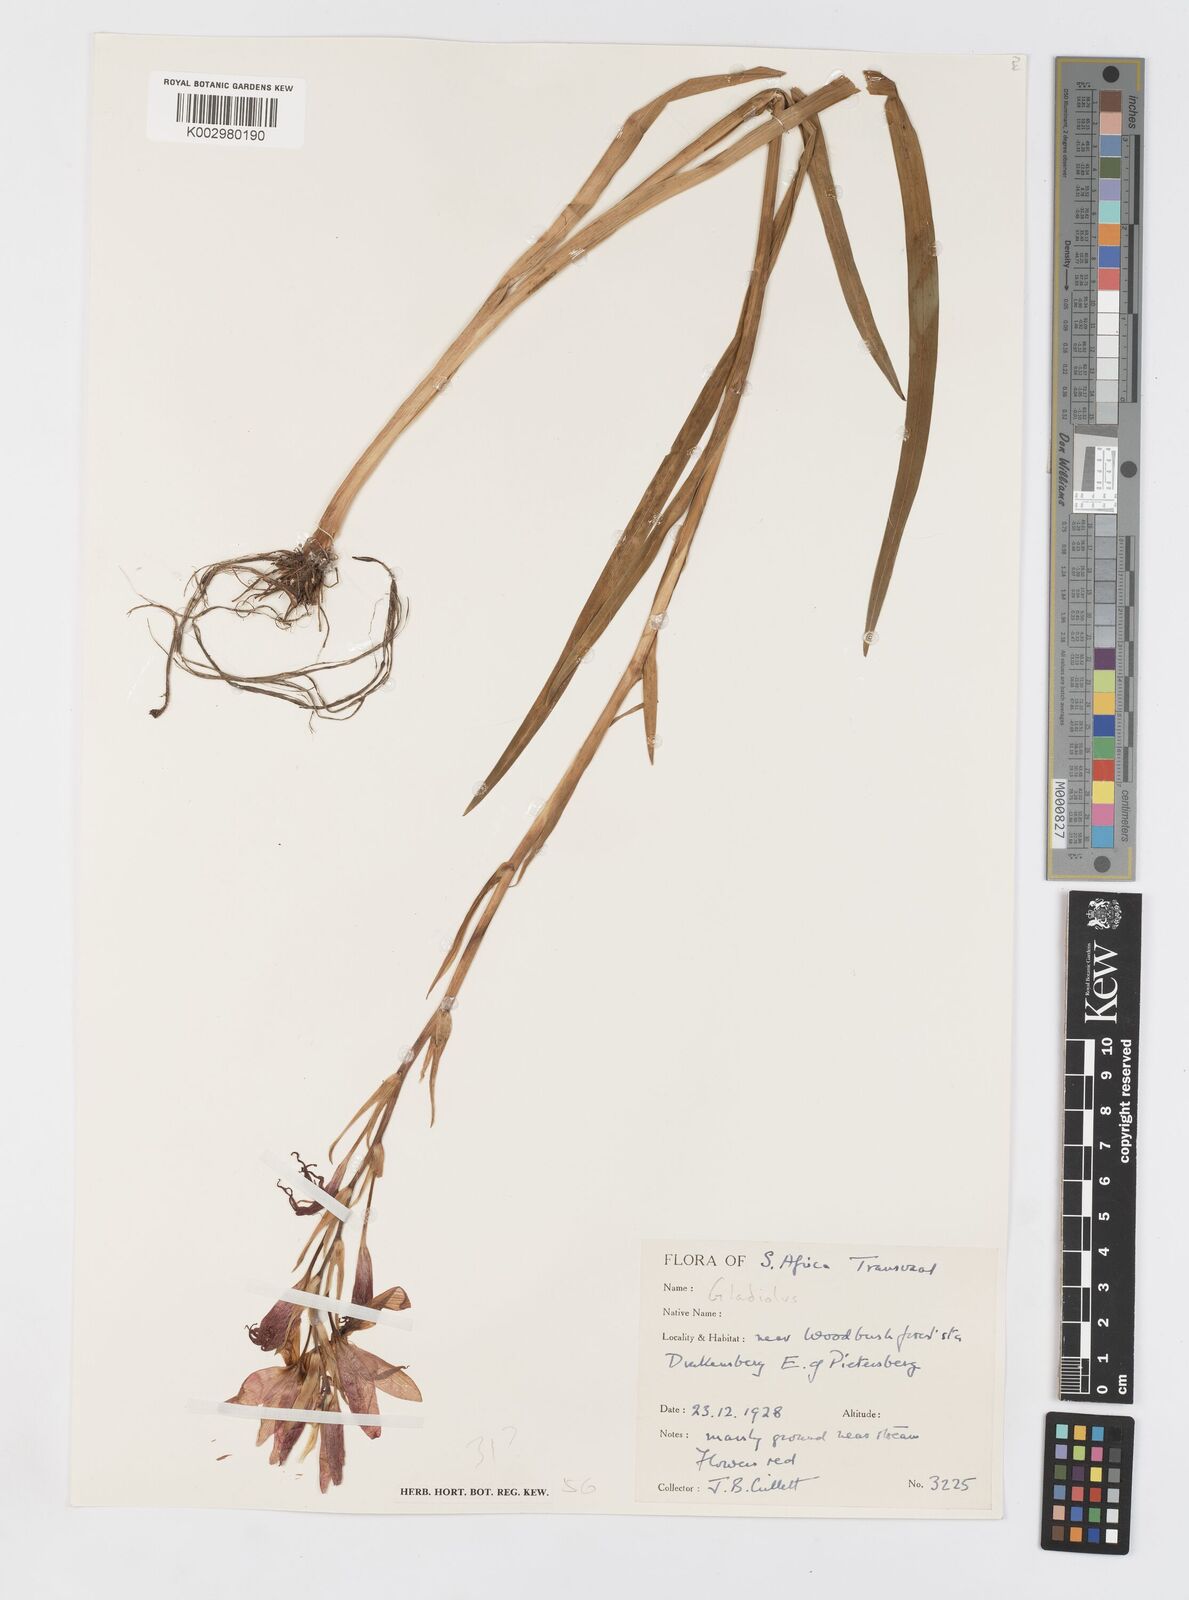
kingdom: Plantae
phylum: Tracheophyta
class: Liliopsida
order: Asparagales
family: Iridaceae
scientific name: Iridaceae
